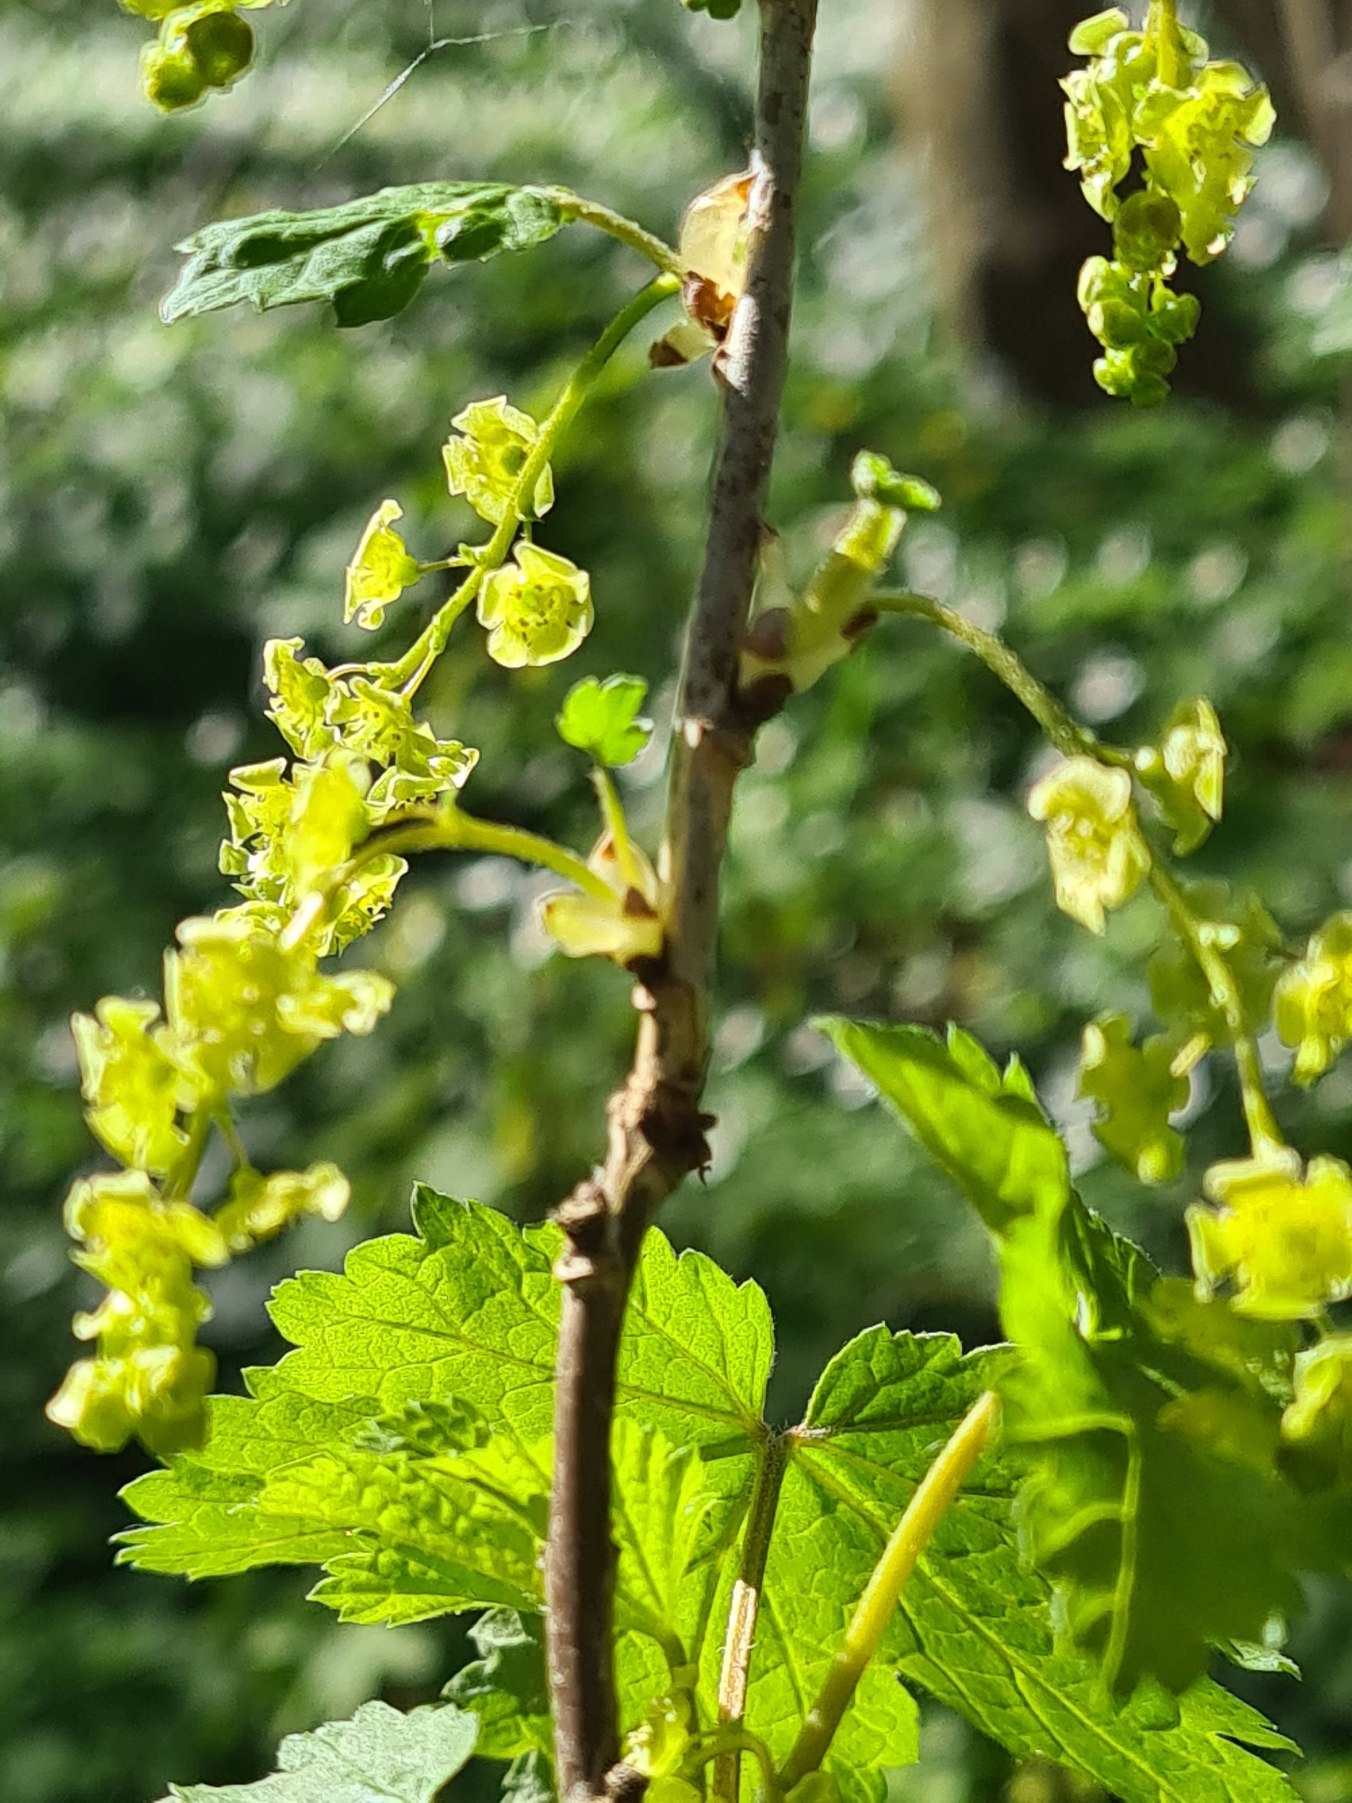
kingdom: Plantae
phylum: Tracheophyta
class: Magnoliopsida
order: Saxifragales
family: Grossulariaceae
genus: Ribes
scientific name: Ribes rubrum
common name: Slots-ribs
